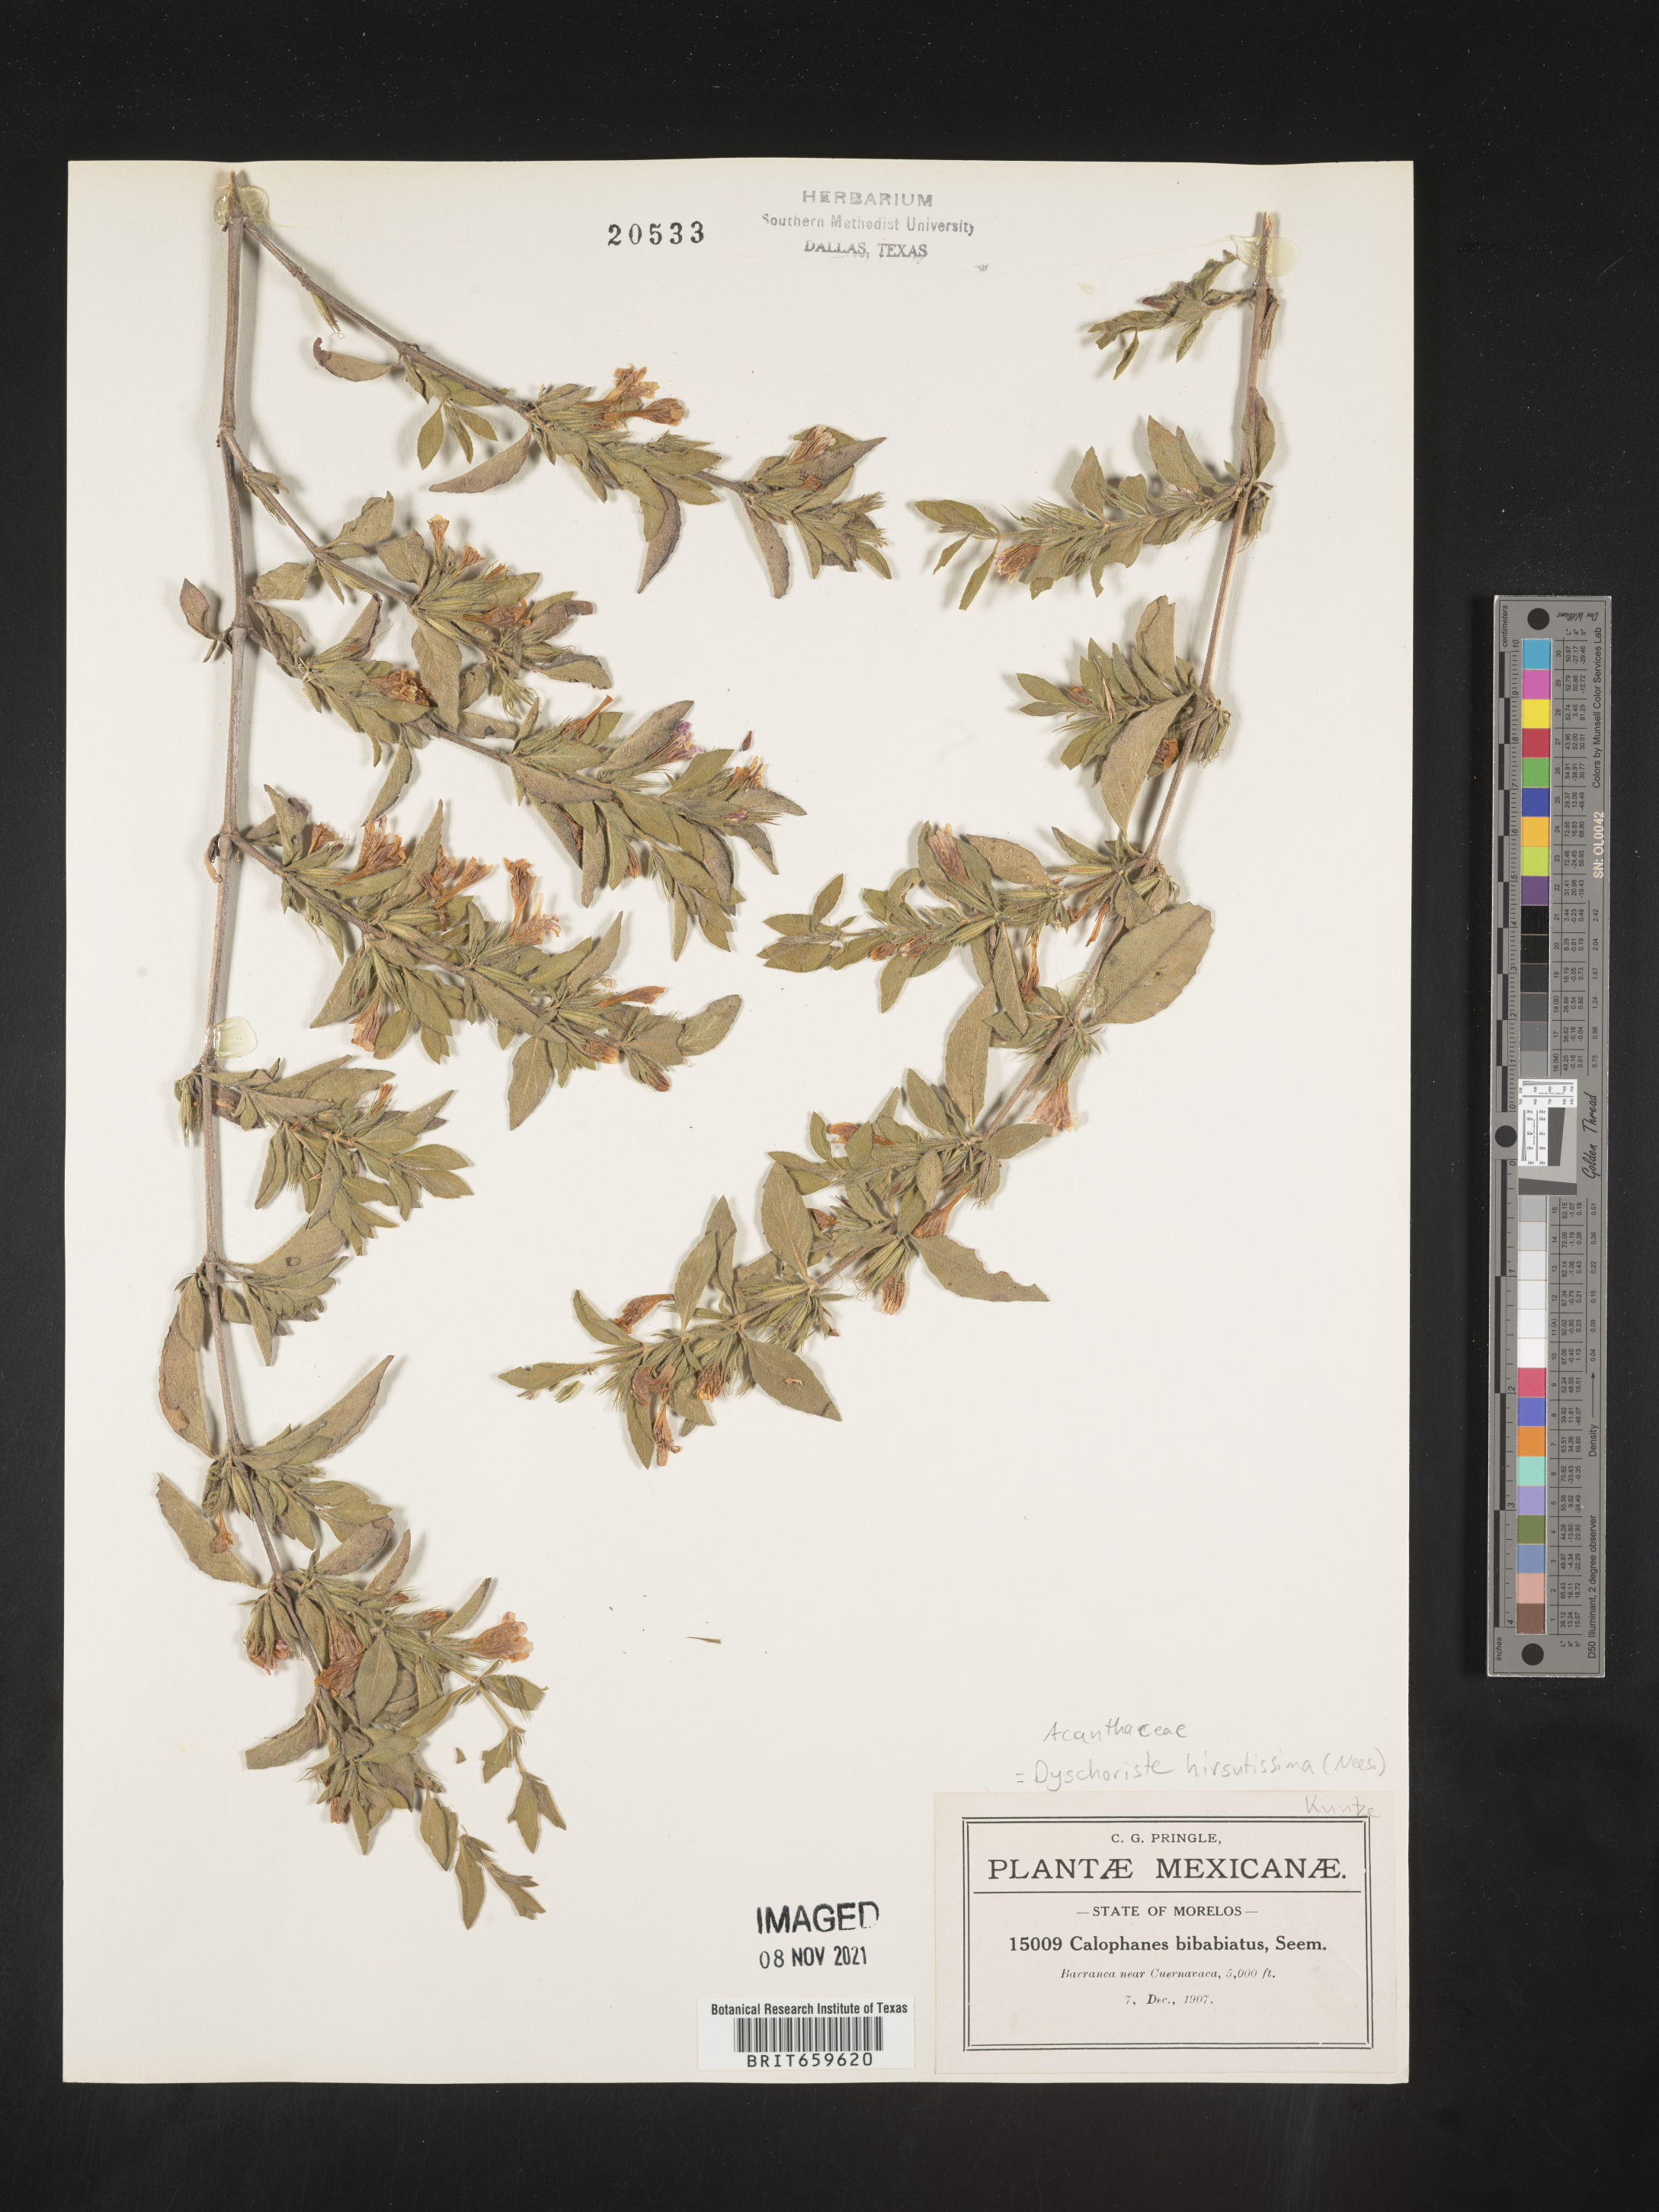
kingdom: Plantae
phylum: Tracheophyta
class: Magnoliopsida
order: Lamiales
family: Acanthaceae
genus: Dyschoriste
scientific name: Dyschoriste
